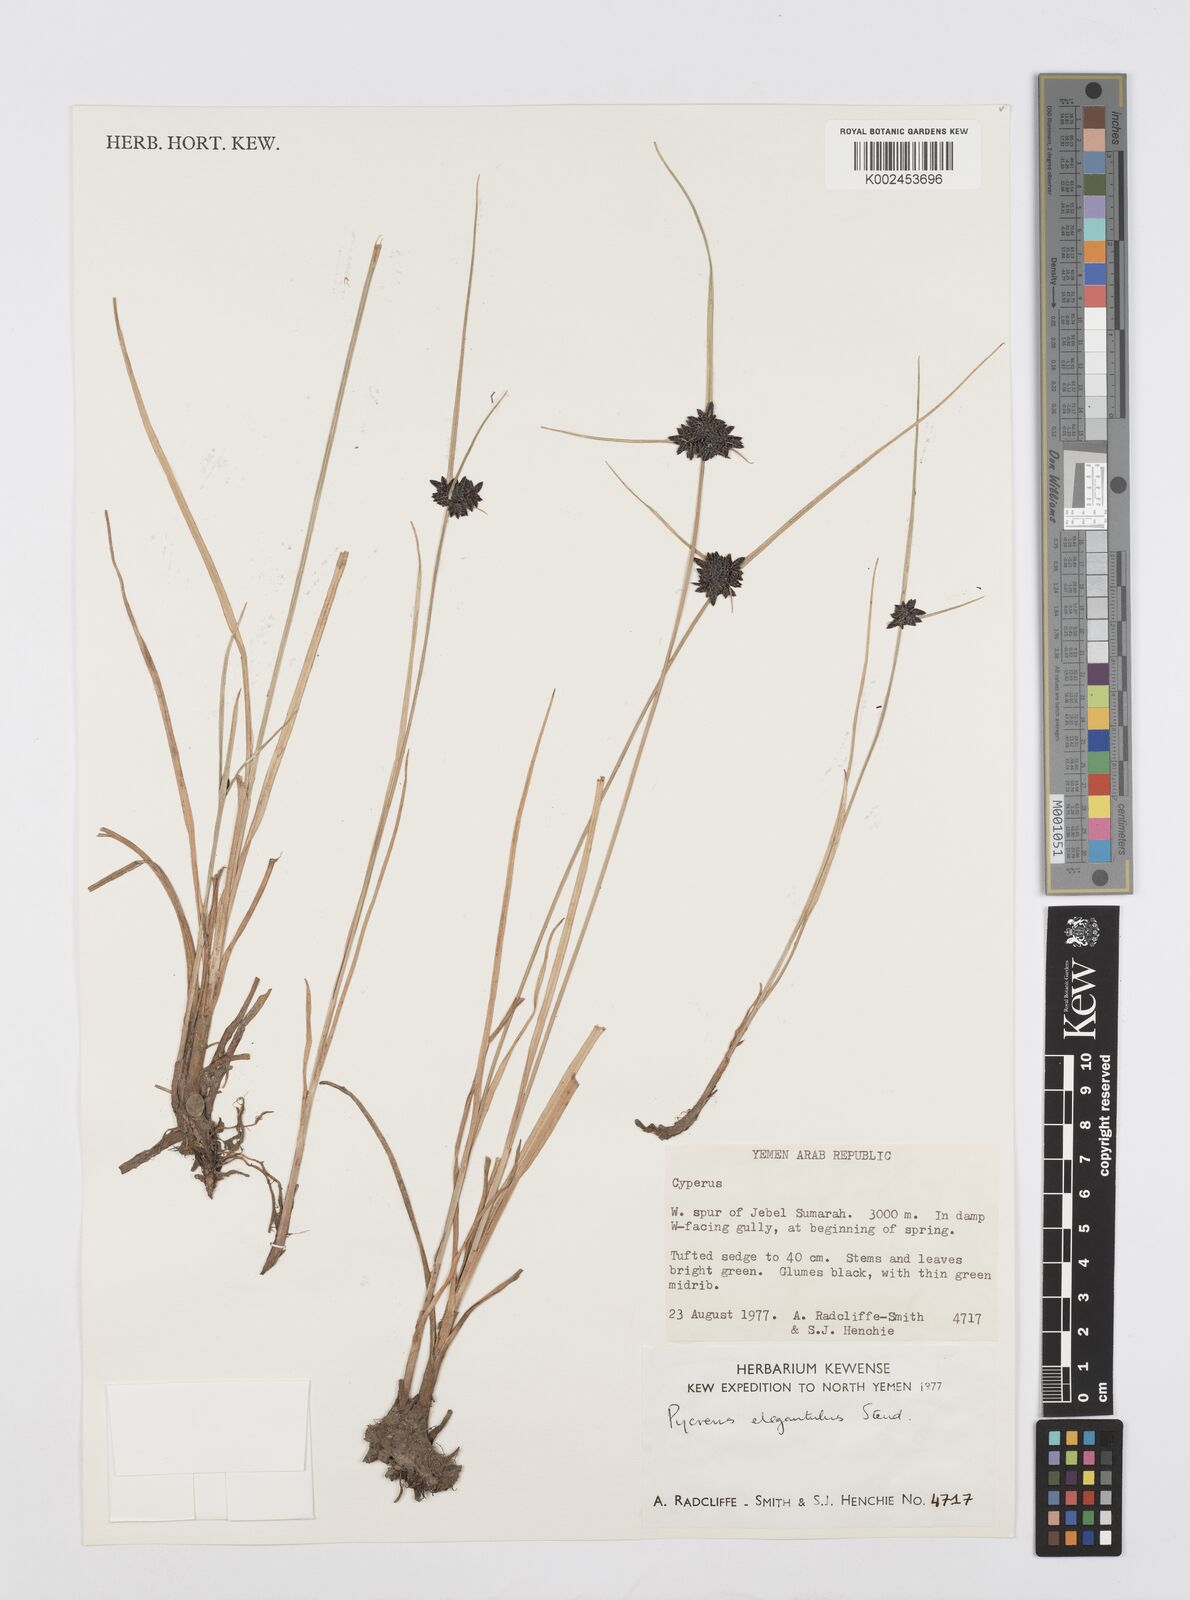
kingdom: Plantae
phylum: Tracheophyta
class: Liliopsida
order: Poales
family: Cyperaceae
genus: Cyperus
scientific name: Cyperus elegantulus
